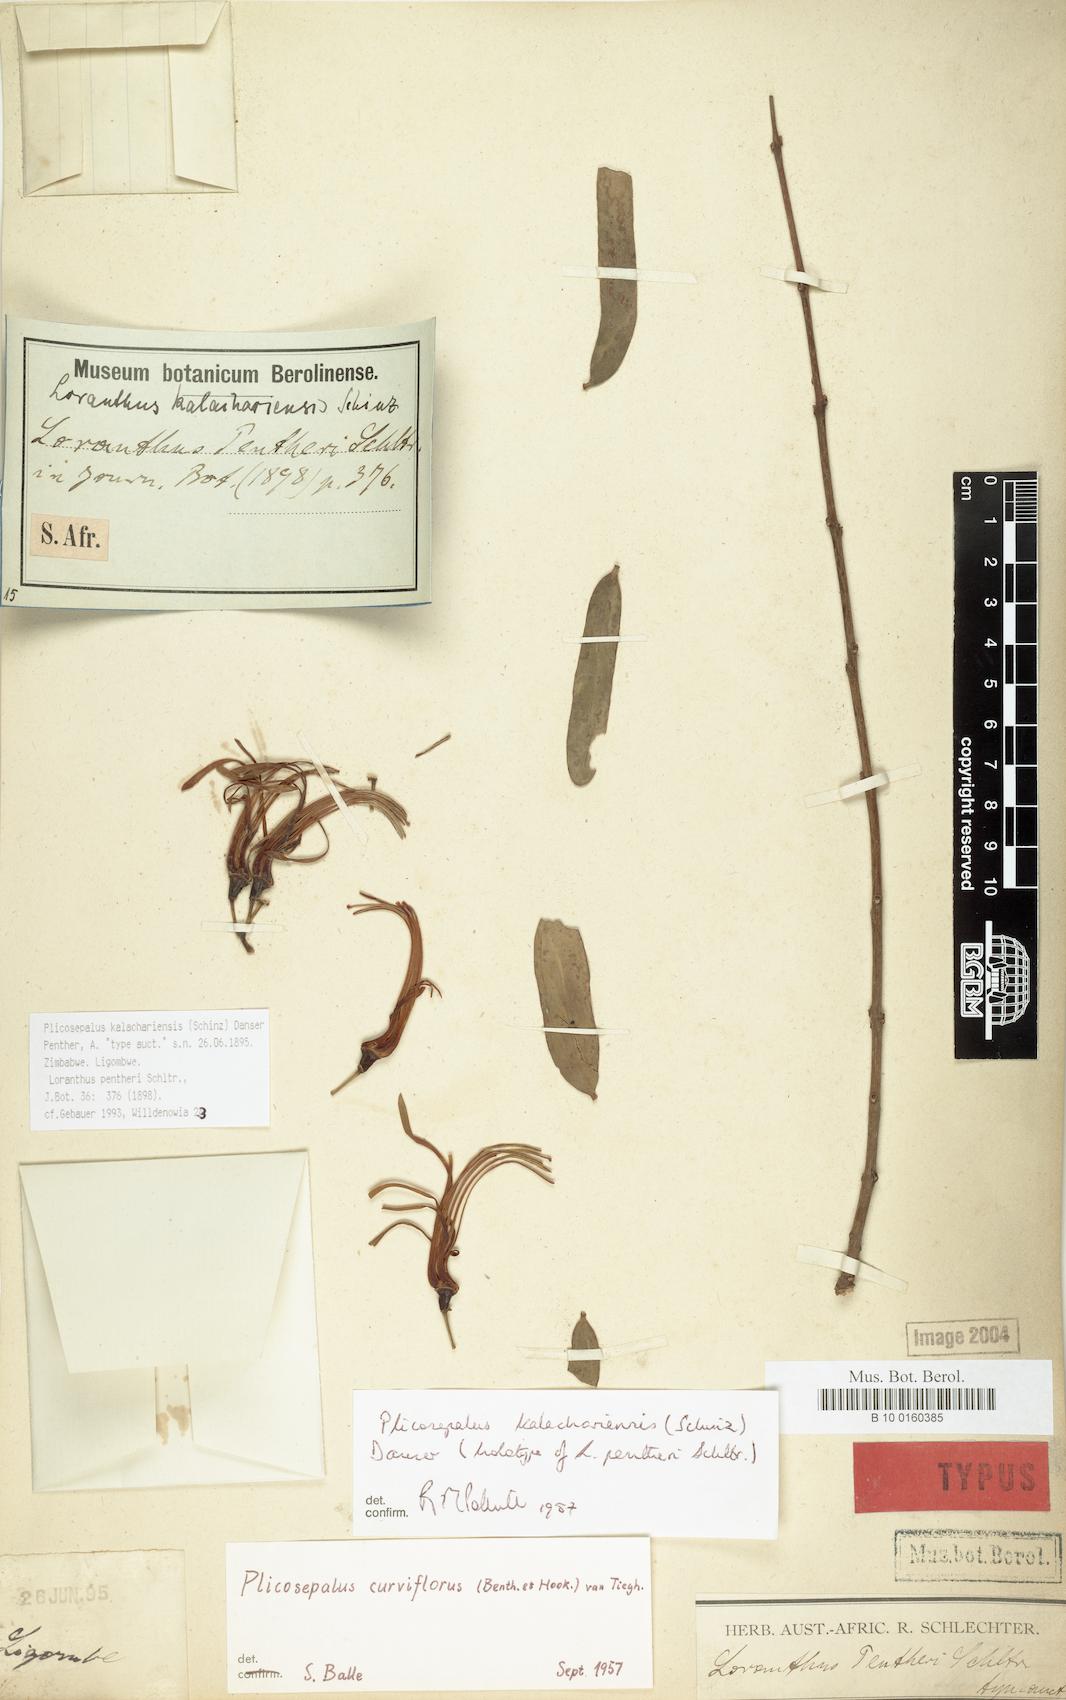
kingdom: Plantae
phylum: Tracheophyta
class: Magnoliopsida
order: Santalales
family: Loranthaceae
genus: Plicosepalus
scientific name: Plicosepalus kalachariensis
